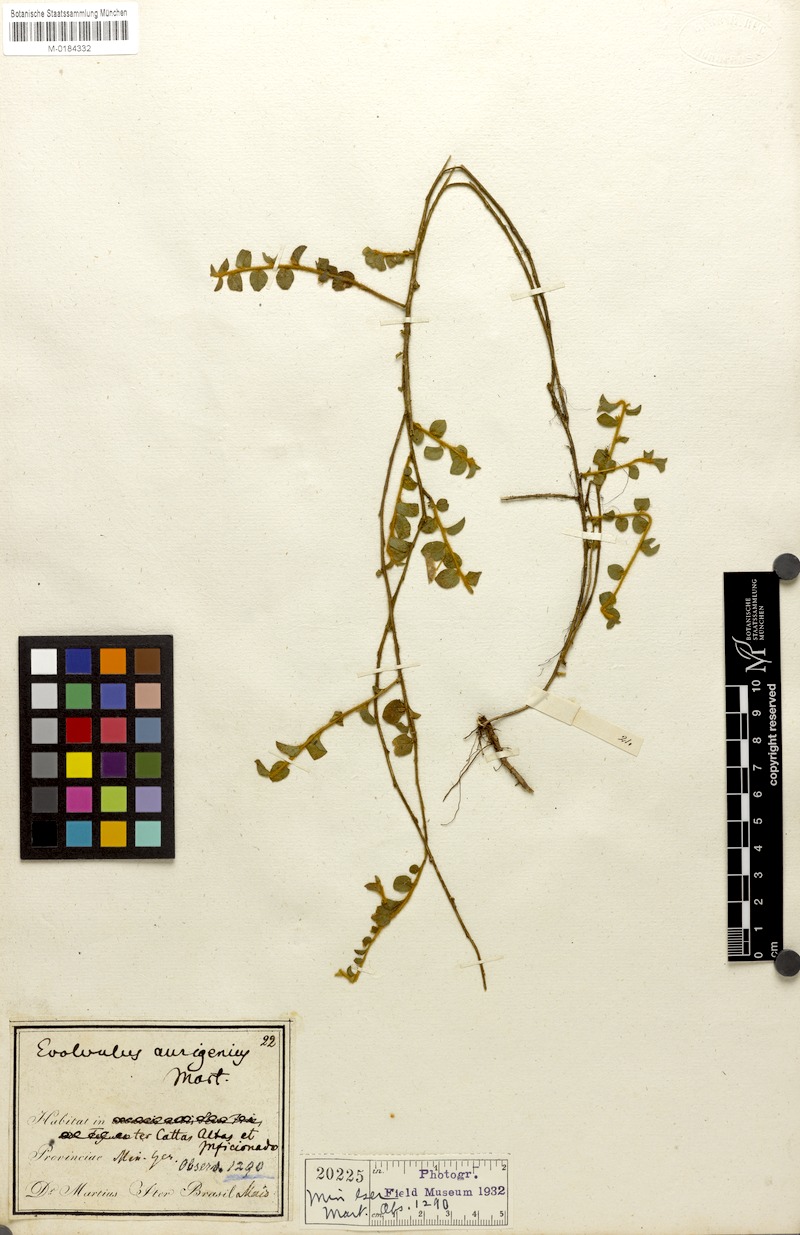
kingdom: Plantae
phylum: Tracheophyta
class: Magnoliopsida
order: Solanales
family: Convolvulaceae
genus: Evolvulus
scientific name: Evolvulus aurigenius
